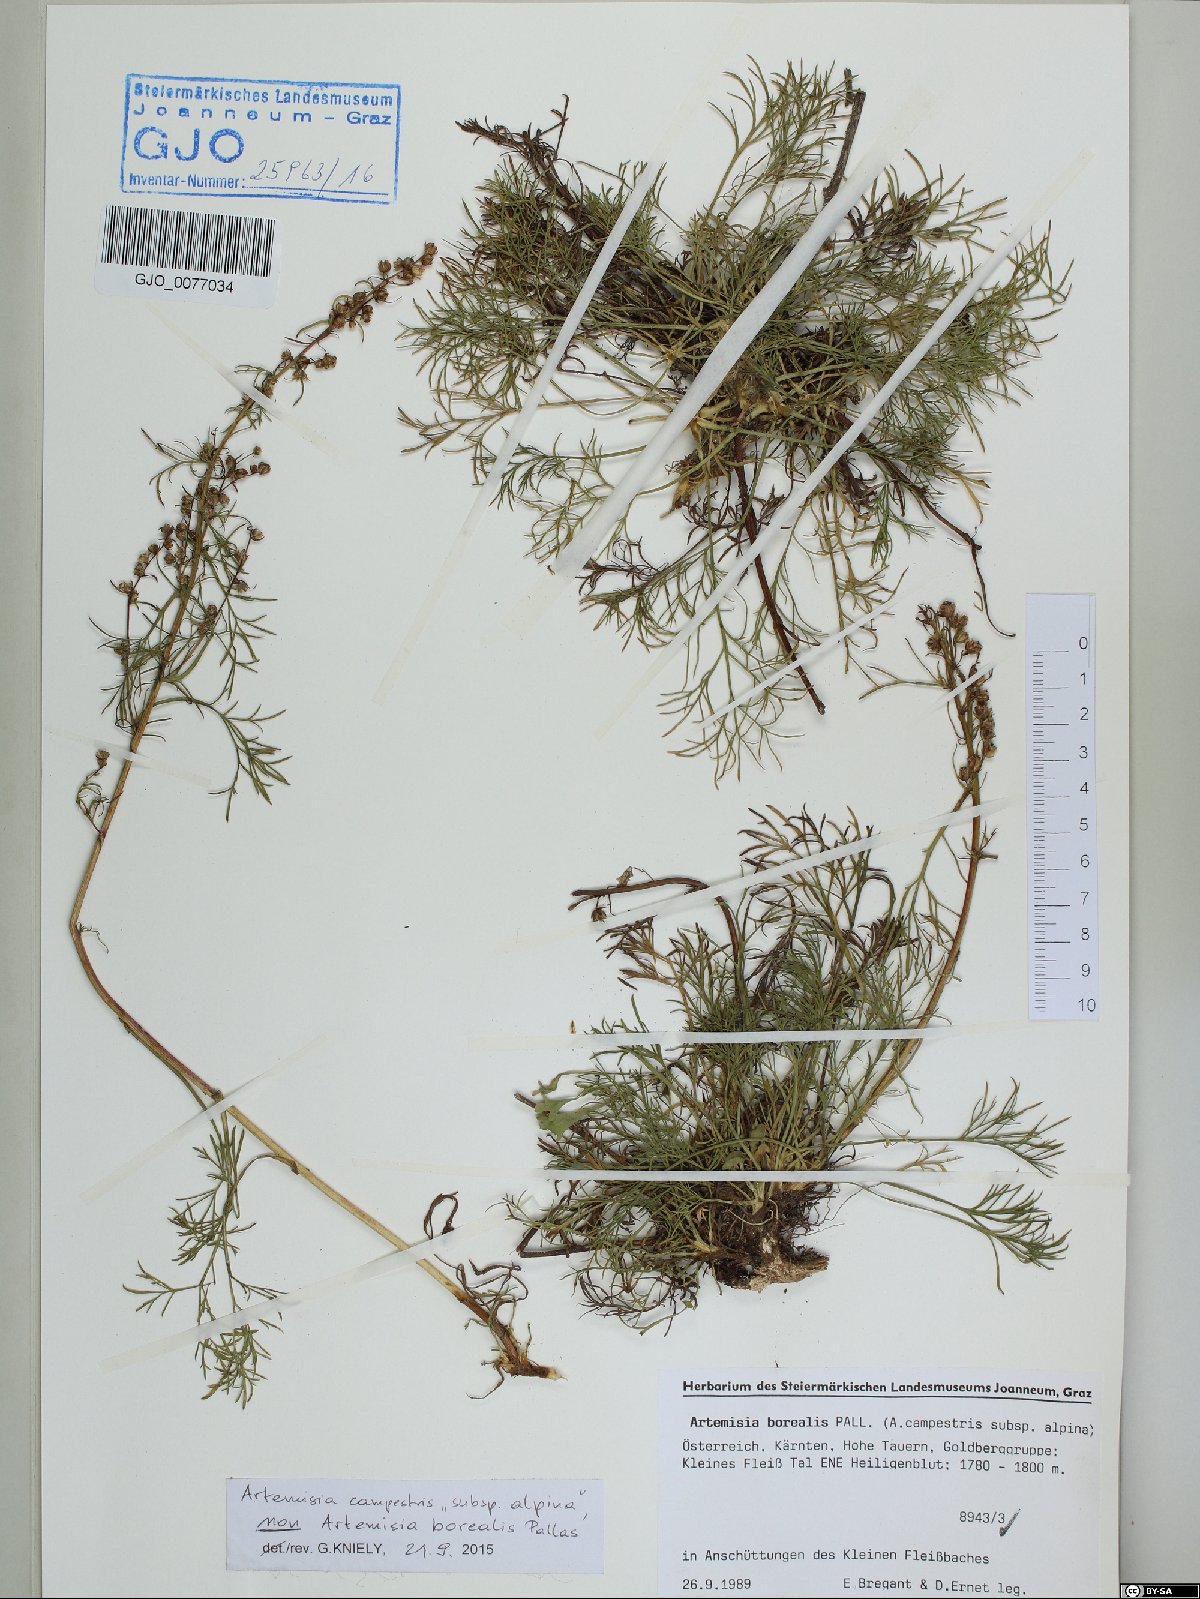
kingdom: Plantae
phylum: Tracheophyta
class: Magnoliopsida
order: Asterales
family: Asteraceae
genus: Artemisia
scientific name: Artemisia campestris
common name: Field wormwood
